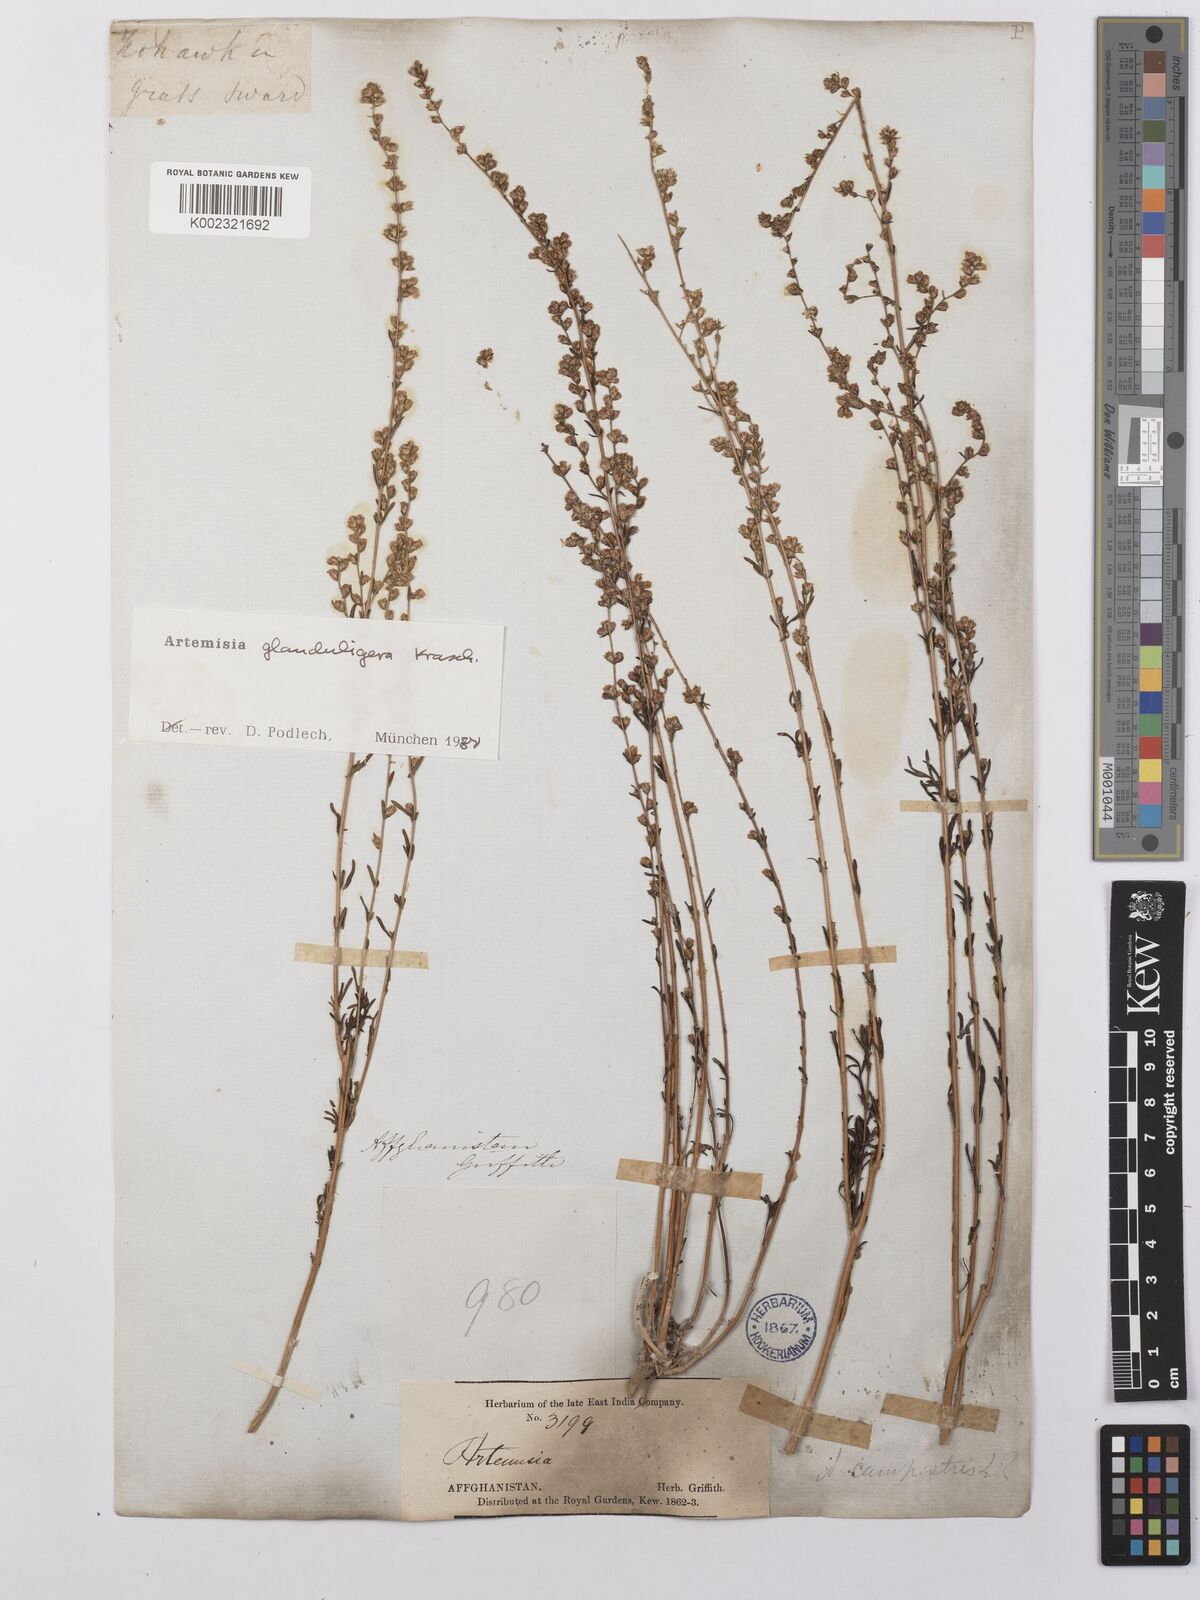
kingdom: Plantae
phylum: Tracheophyta
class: Magnoliopsida
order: Asterales
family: Asteraceae
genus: Artemisia
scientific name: Artemisia glanduligera
